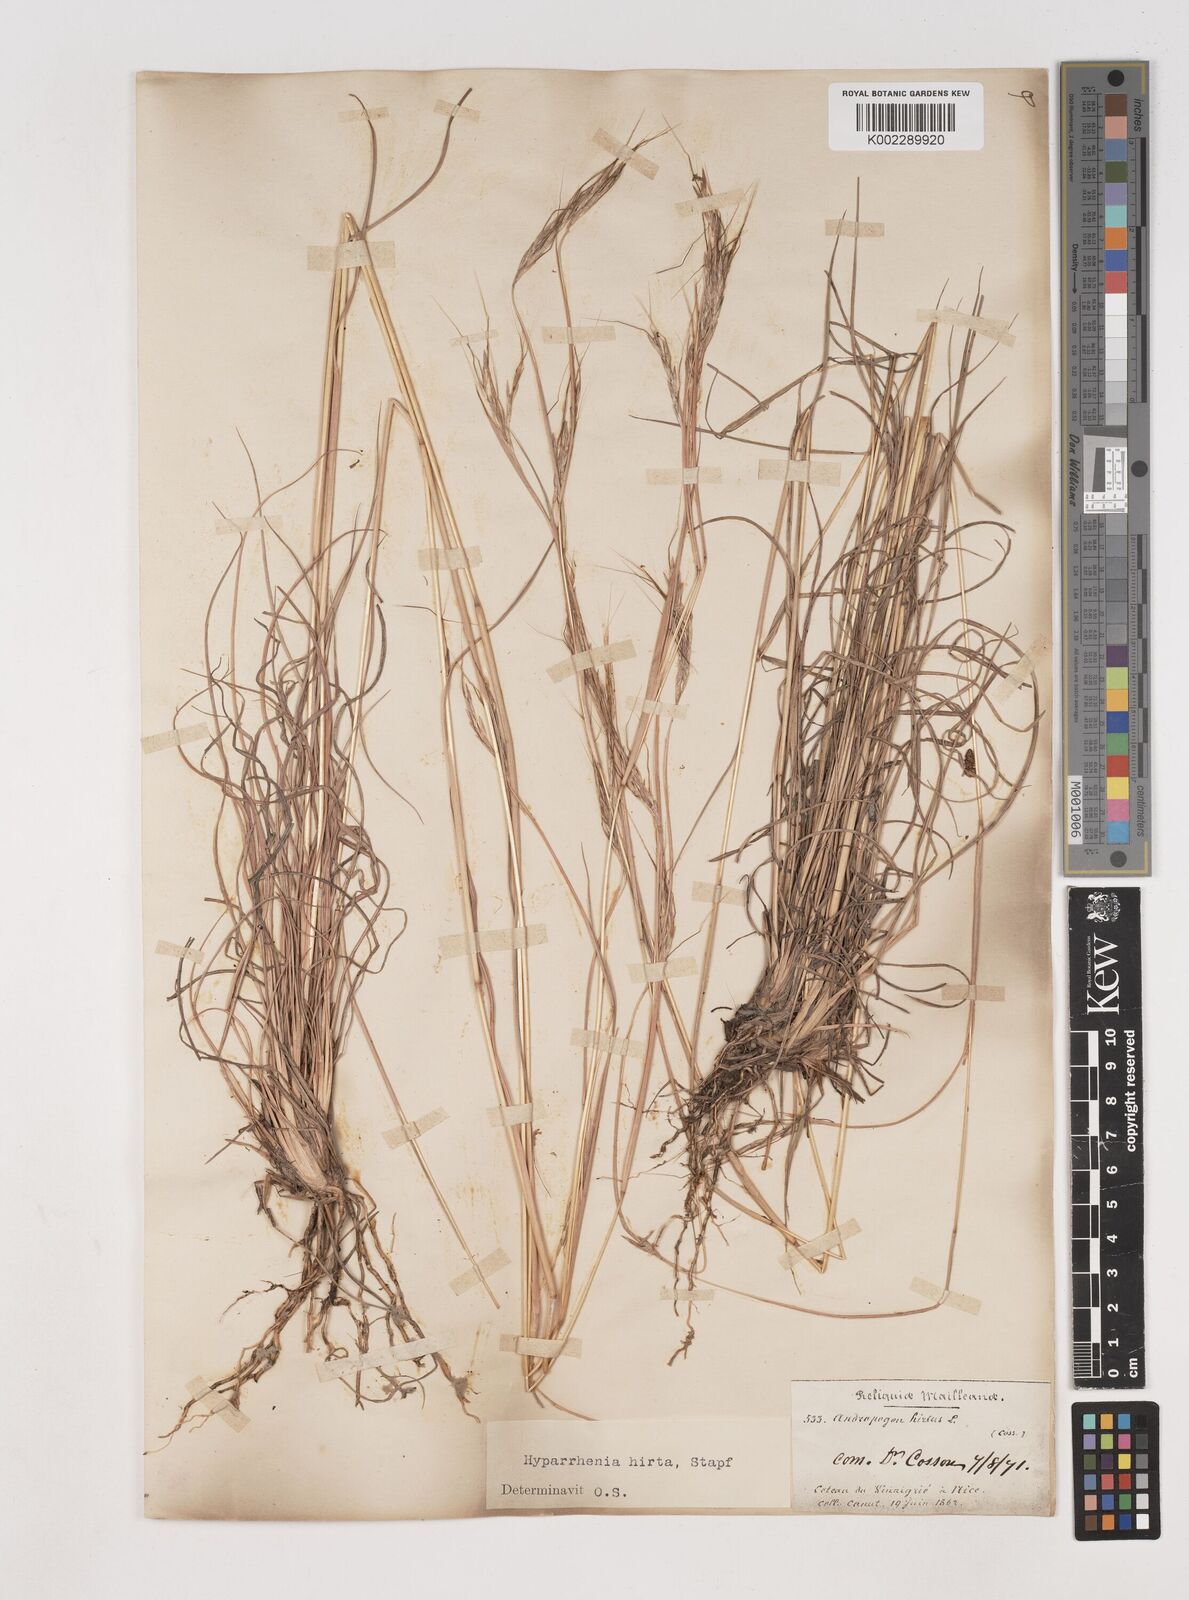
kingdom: Plantae
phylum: Tracheophyta
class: Liliopsida
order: Poales
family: Poaceae
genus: Hyparrhenia
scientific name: Hyparrhenia hirta
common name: Thatching grass
